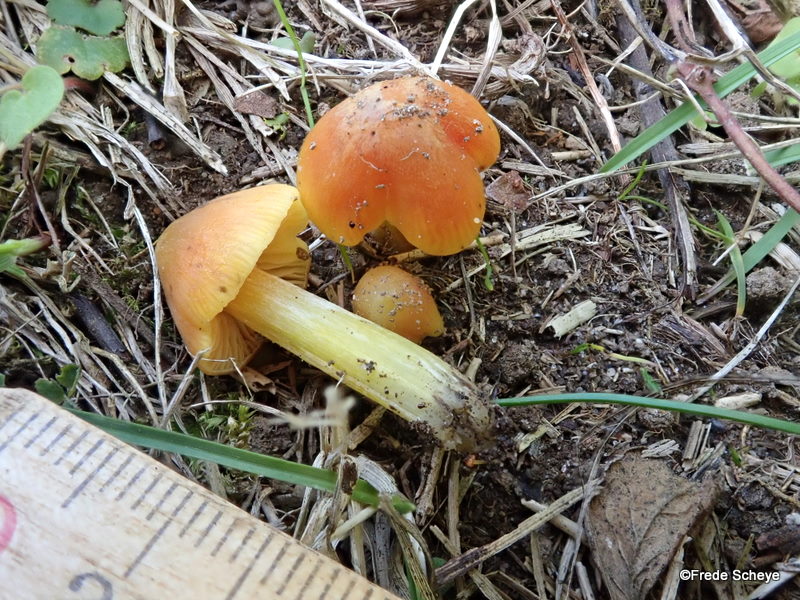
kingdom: Fungi
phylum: Basidiomycota
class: Agaricomycetes
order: Agaricales
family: Hygrophoraceae
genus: Hygrocybe
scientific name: Hygrocybe conica
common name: kegle-vokshat
